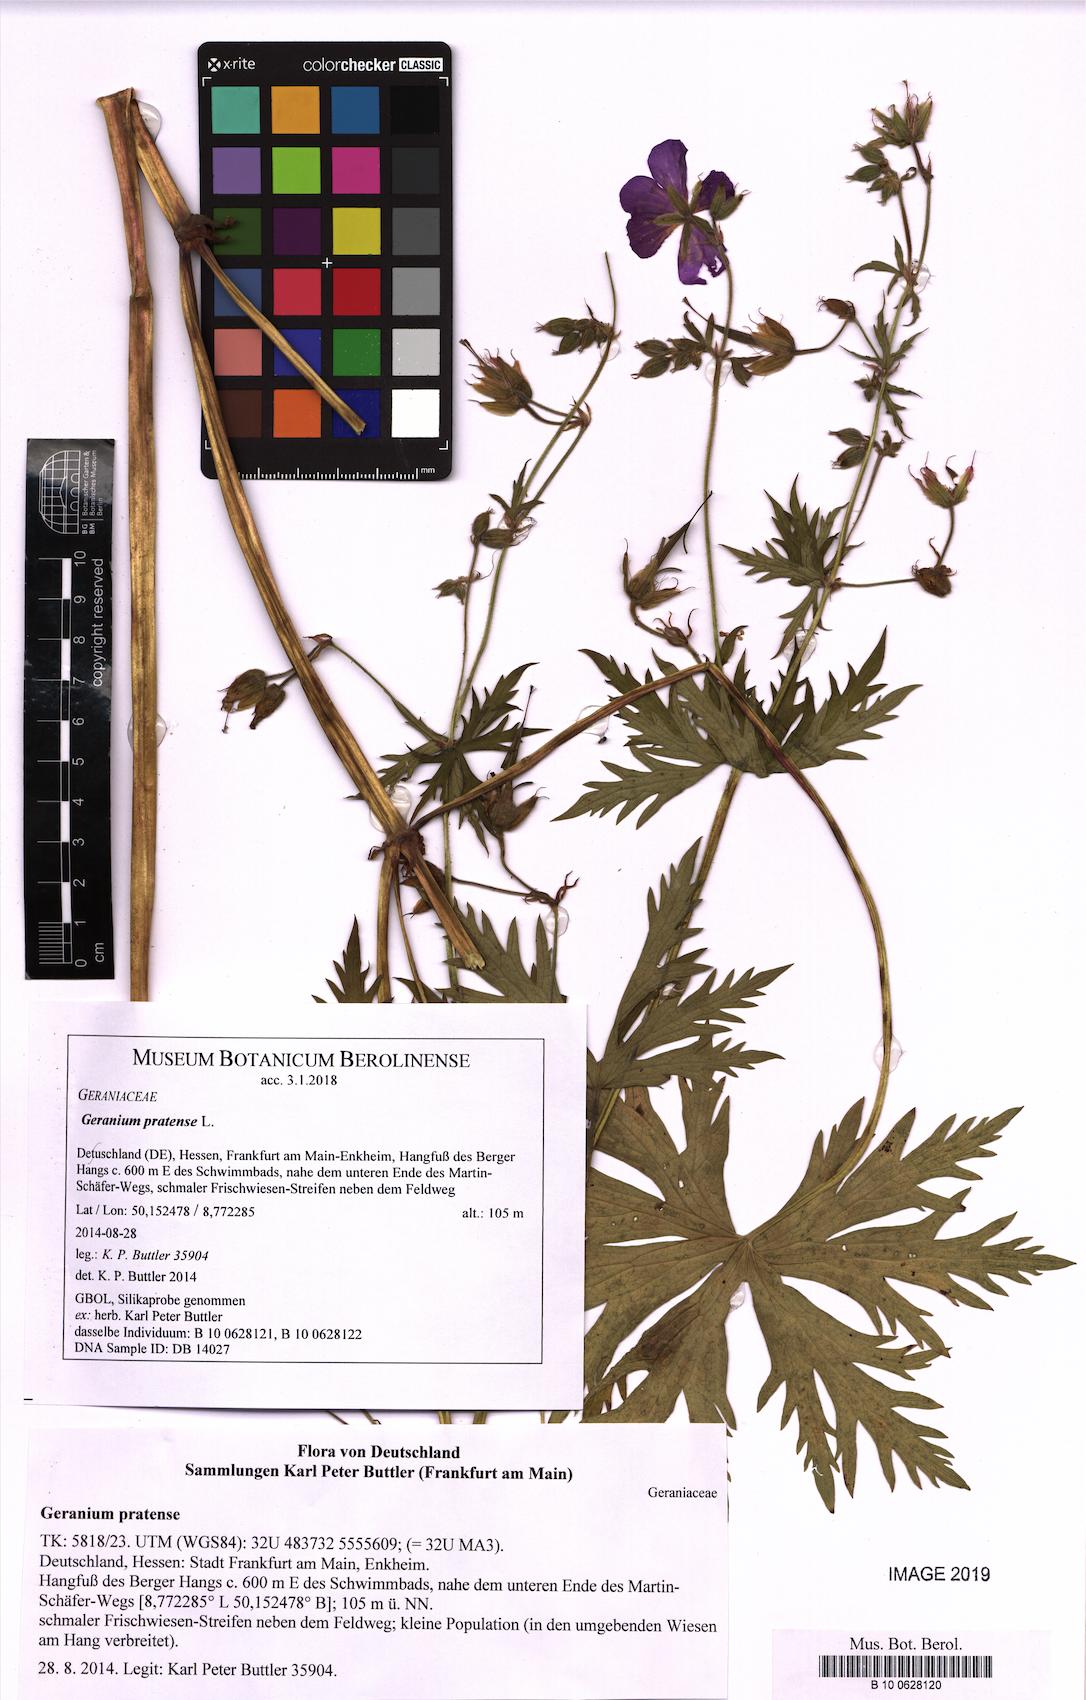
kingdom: Plantae
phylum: Tracheophyta
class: Magnoliopsida
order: Geraniales
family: Geraniaceae
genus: Geranium
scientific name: Geranium pratense
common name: Meadow crane's-bill
